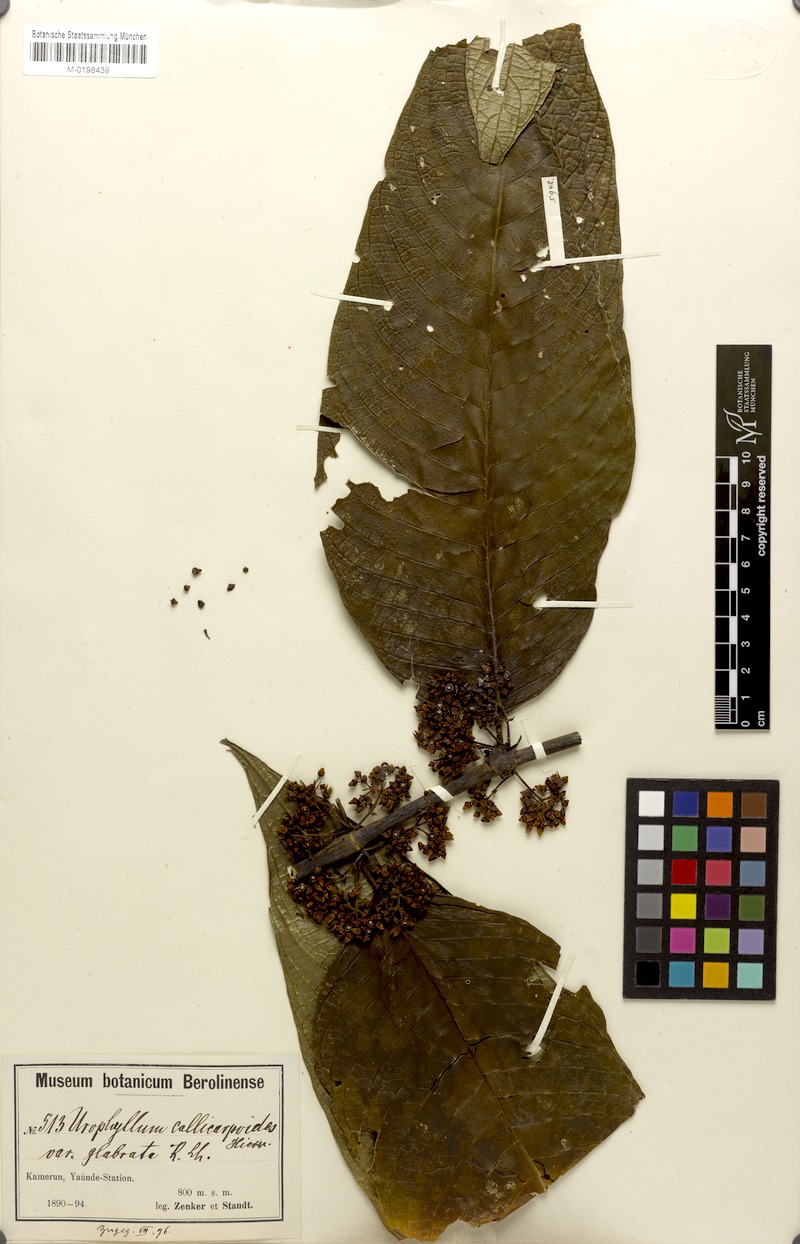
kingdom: Plantae
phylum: Tracheophyta
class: Magnoliopsida
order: Gentianales
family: Rubiaceae
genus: Pauridiantha
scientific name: Pauridiantha callicarpoides
